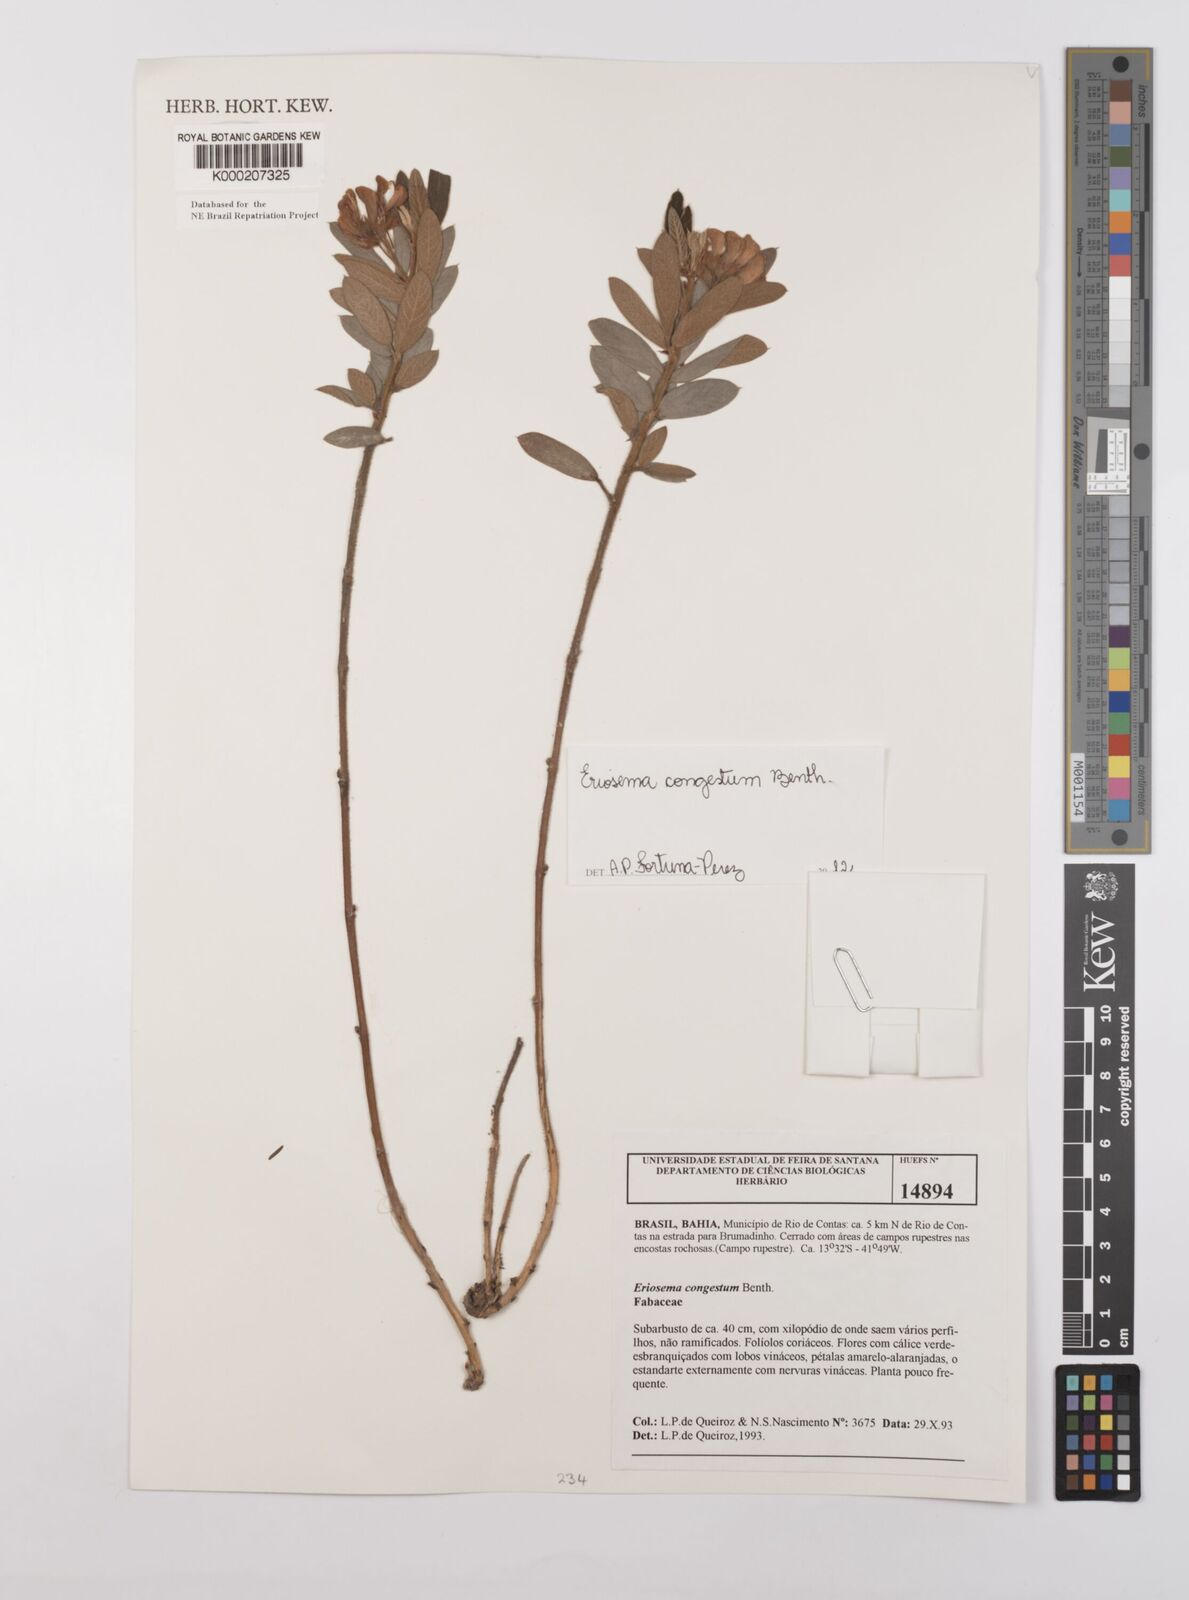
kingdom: Plantae
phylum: Tracheophyta
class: Magnoliopsida
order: Fabales
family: Fabaceae
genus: Eriosema
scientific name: Eriosema congestum
